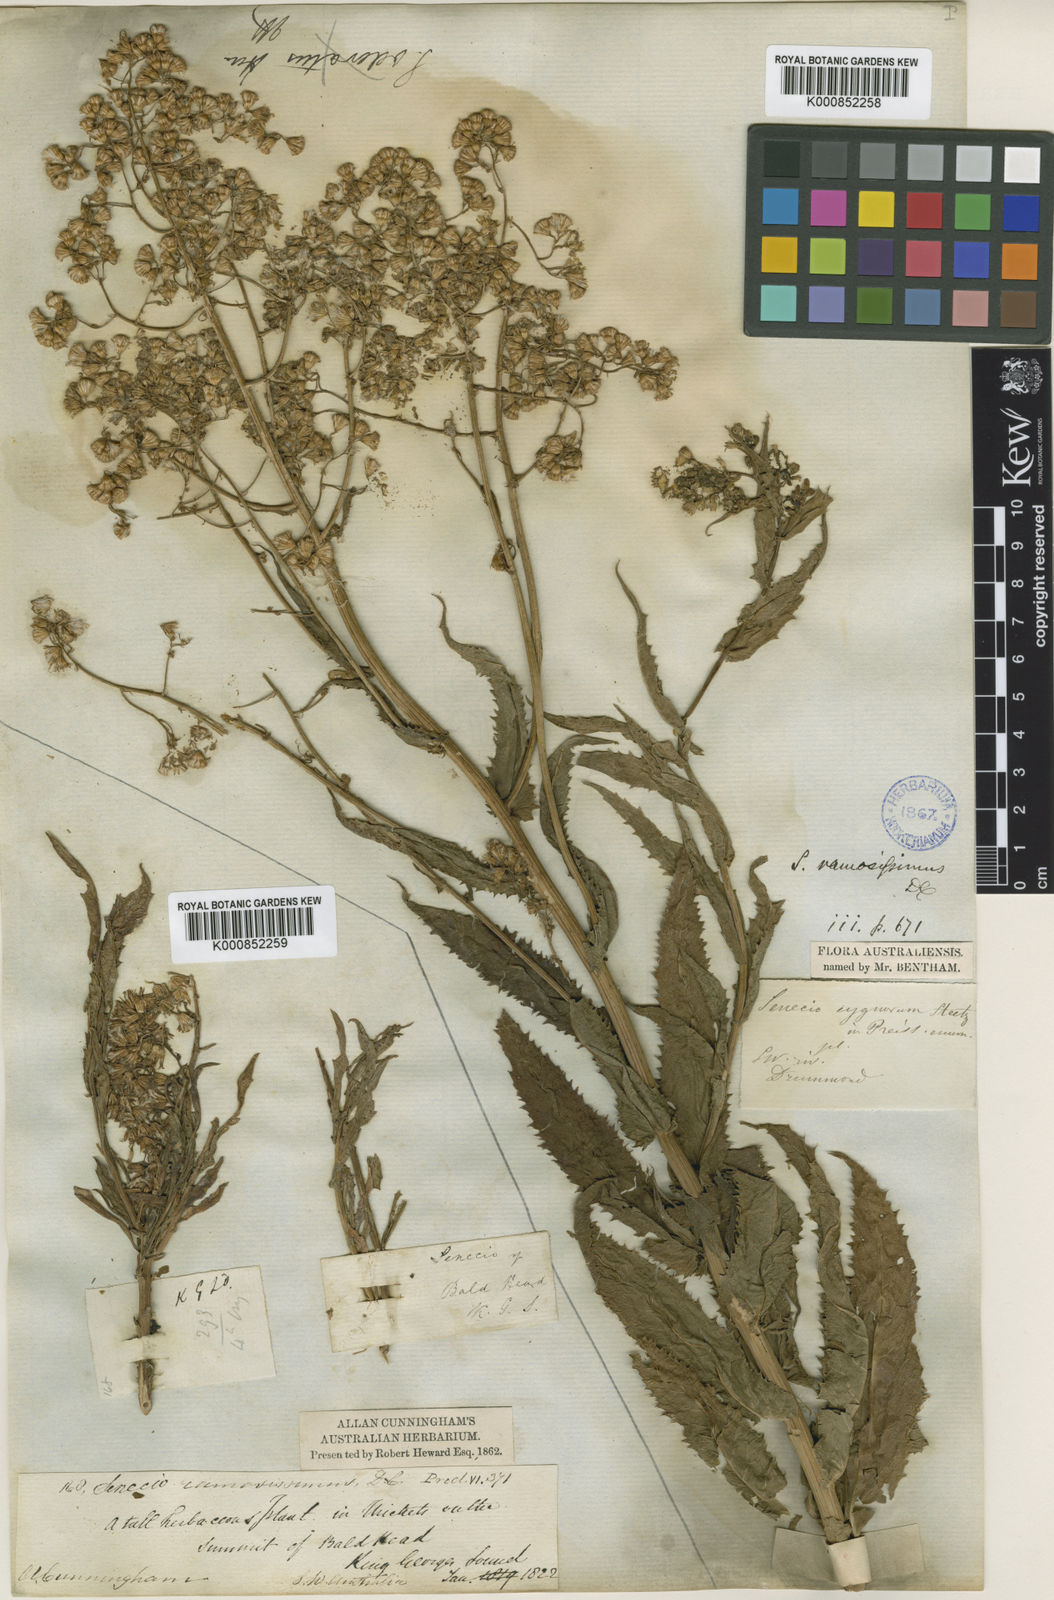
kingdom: Plantae
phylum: Tracheophyta
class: Magnoliopsida
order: Asterales
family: Asteraceae
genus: Senecio
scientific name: Senecio ramosissimus
